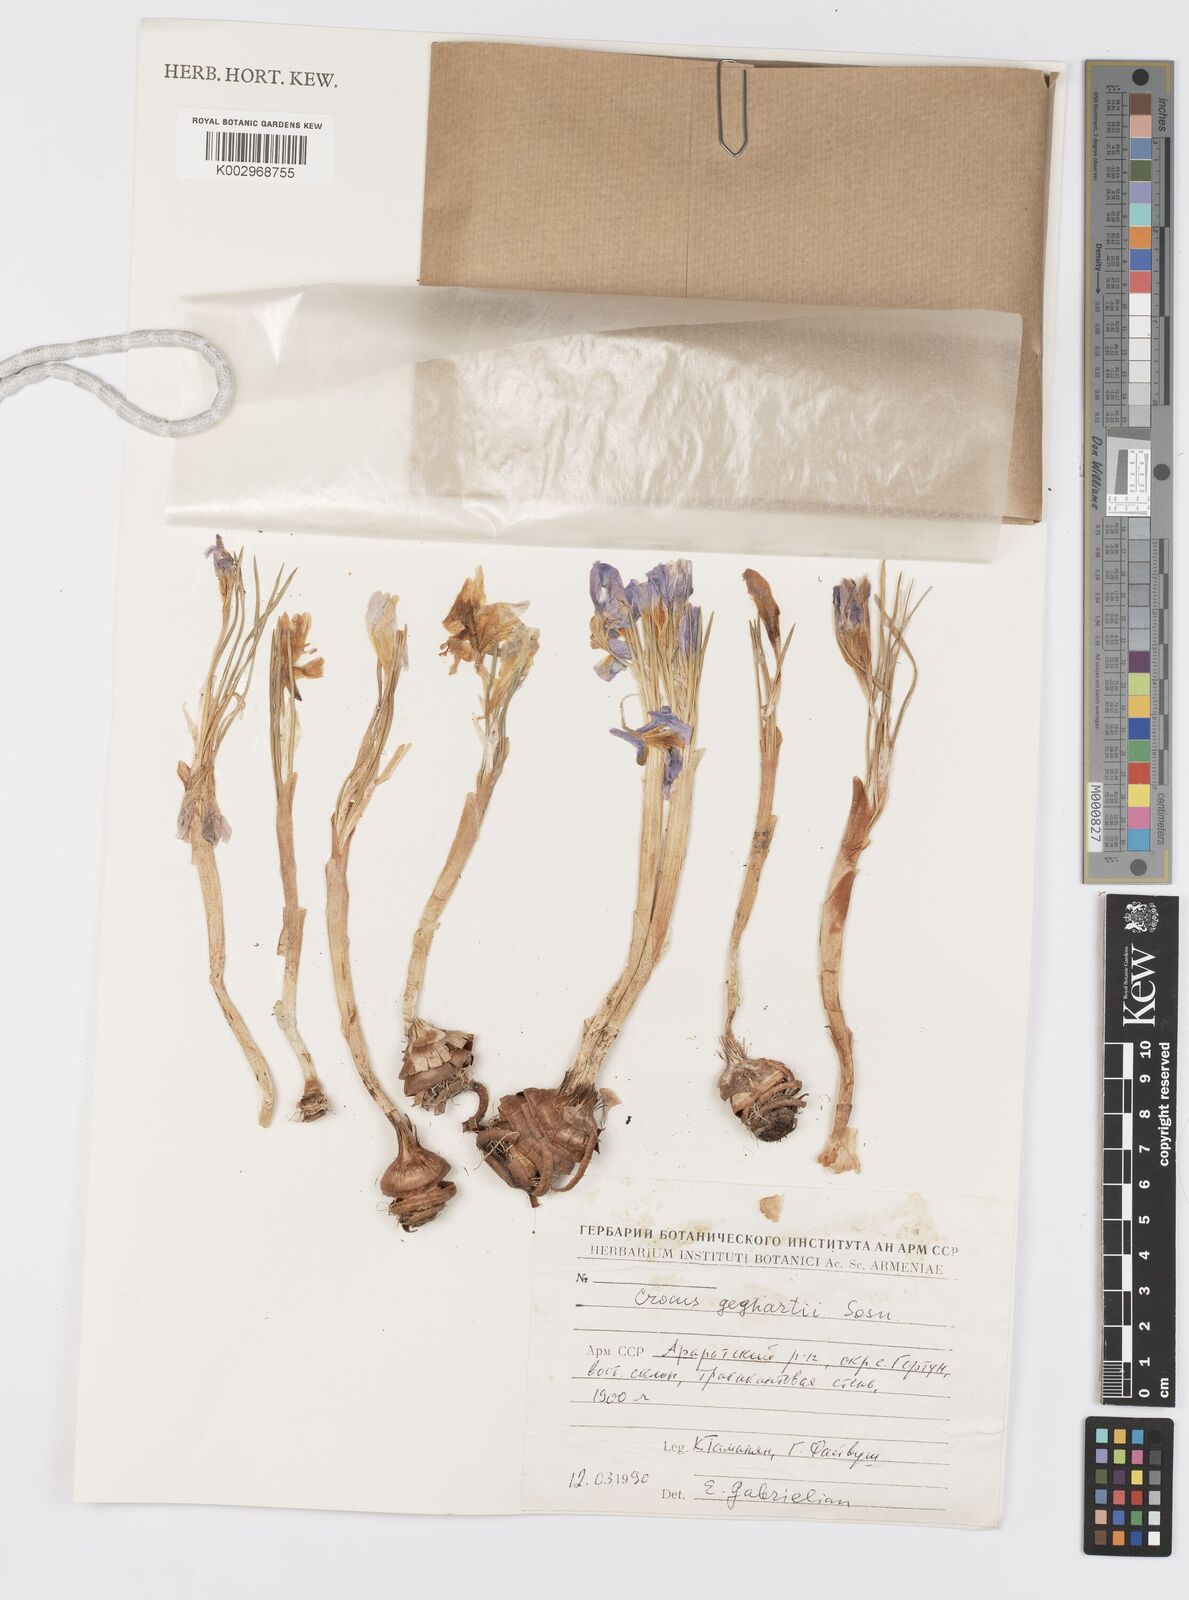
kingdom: Plantae
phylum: Tracheophyta
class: Liliopsida
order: Asparagales
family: Iridaceae
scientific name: Iridaceae
